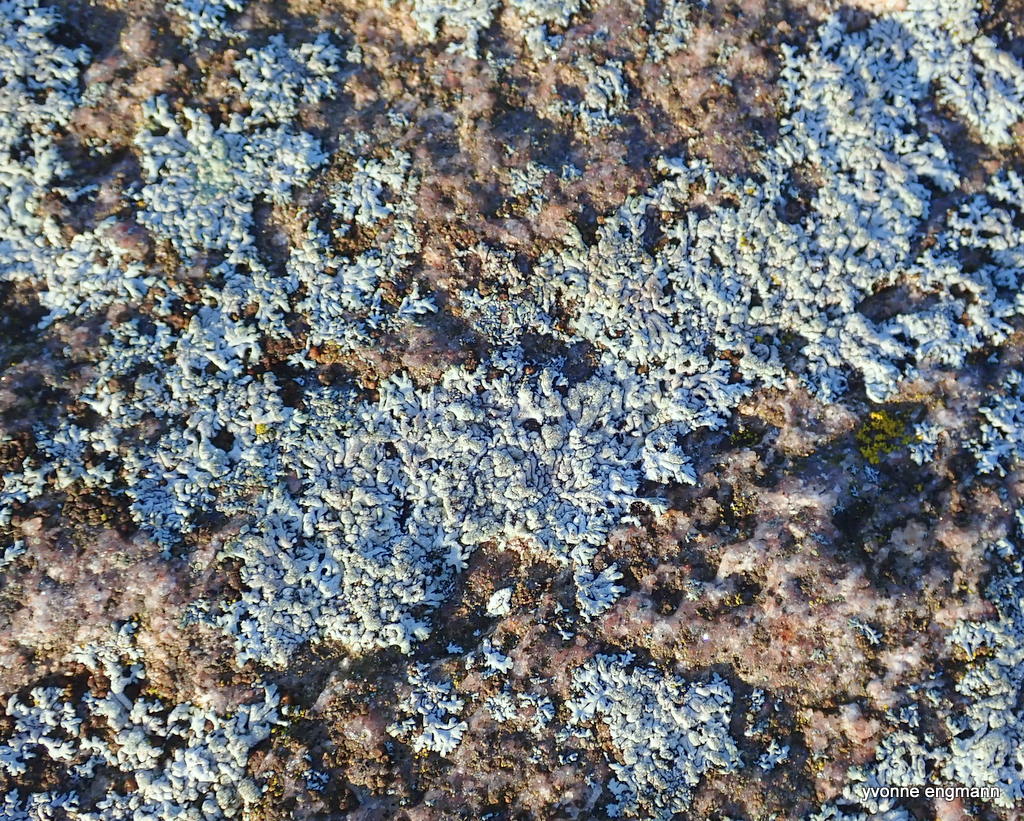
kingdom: Fungi
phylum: Ascomycota
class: Lecanoromycetes
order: Caliciales
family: Physciaceae
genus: Physcia
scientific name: Physcia tenella
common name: spæd rosetlav
